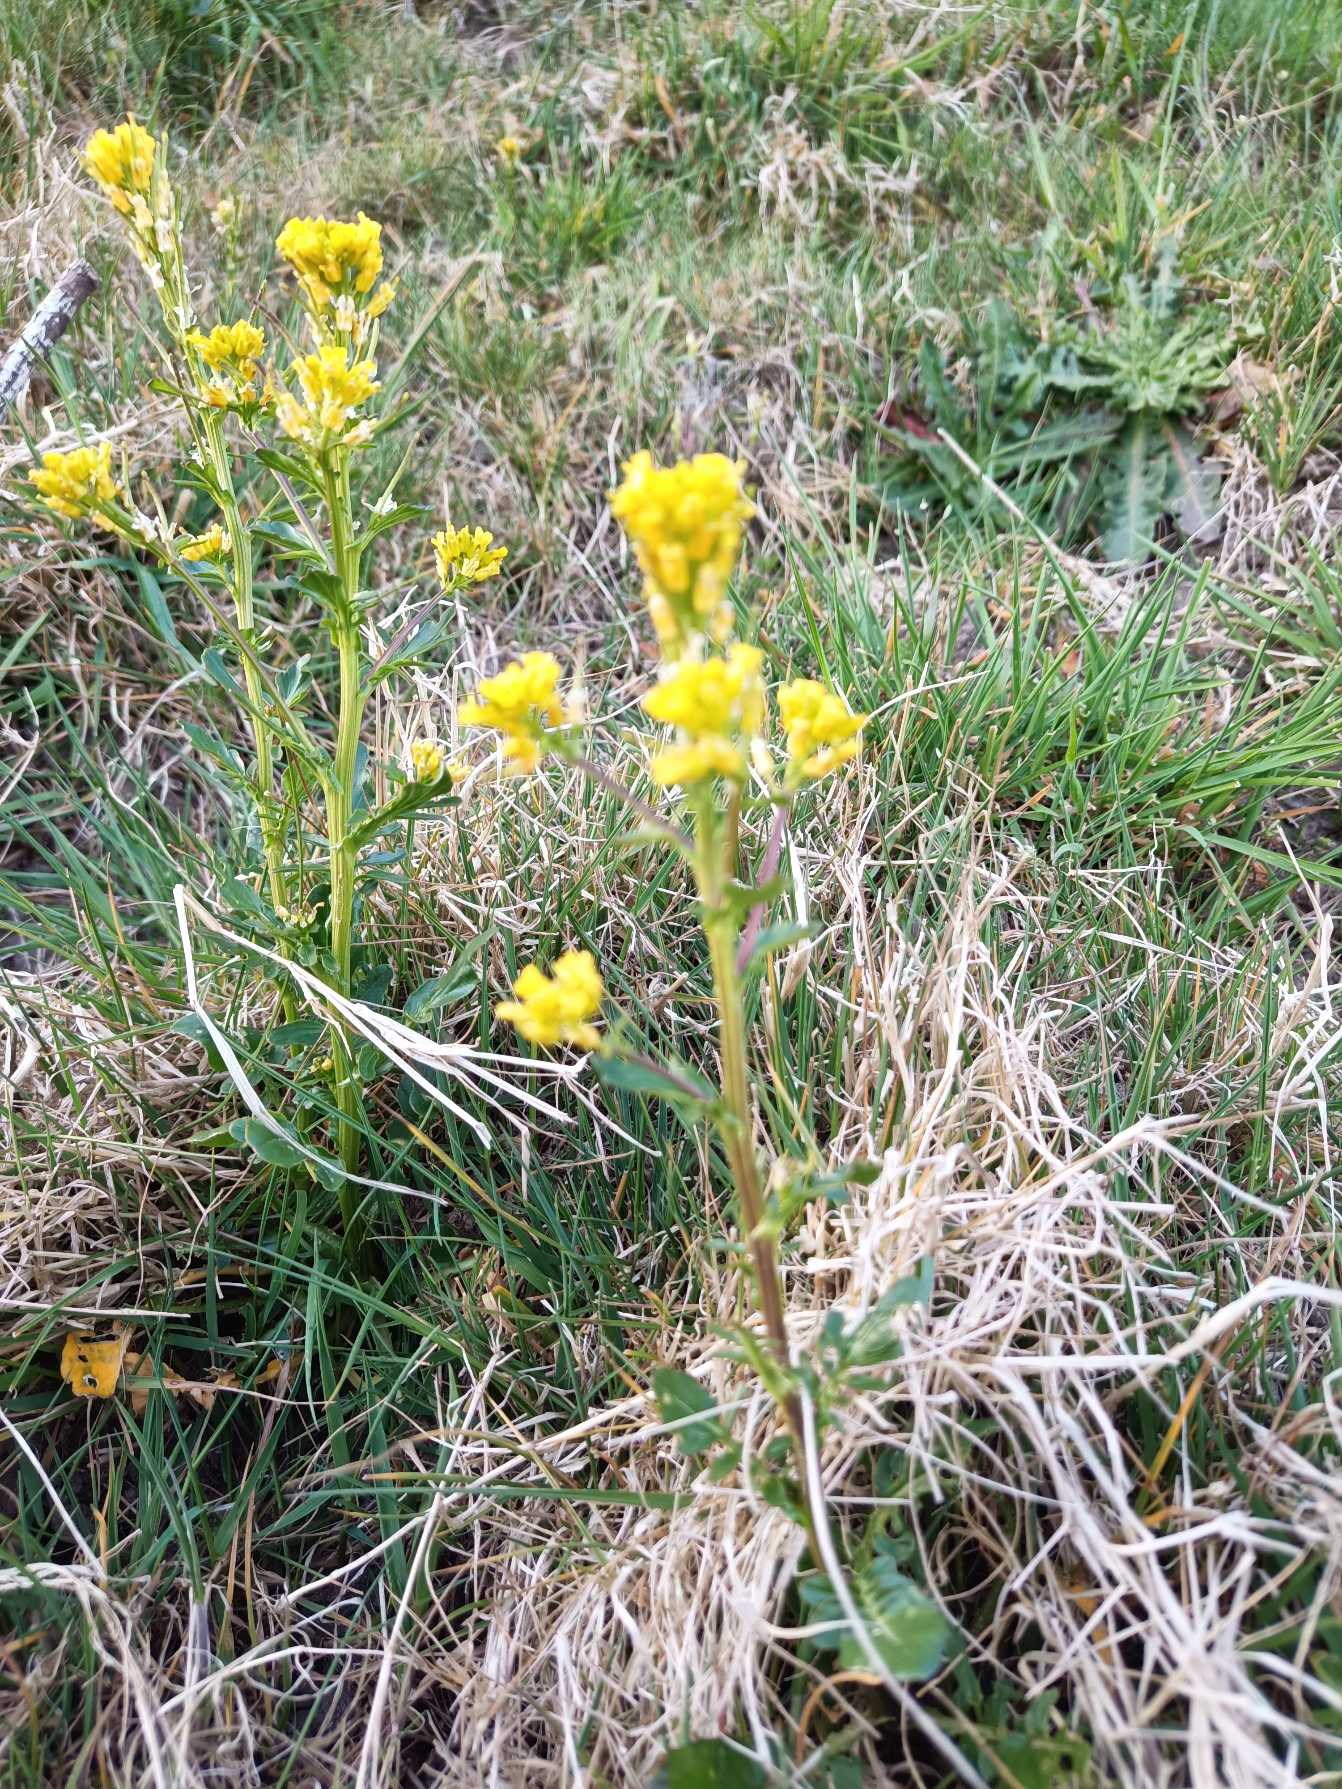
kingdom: Plantae
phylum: Tracheophyta
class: Magnoliopsida
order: Brassicales
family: Brassicaceae
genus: Barbarea
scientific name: Barbarea vulgaris
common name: Almindelig vinterkarse
